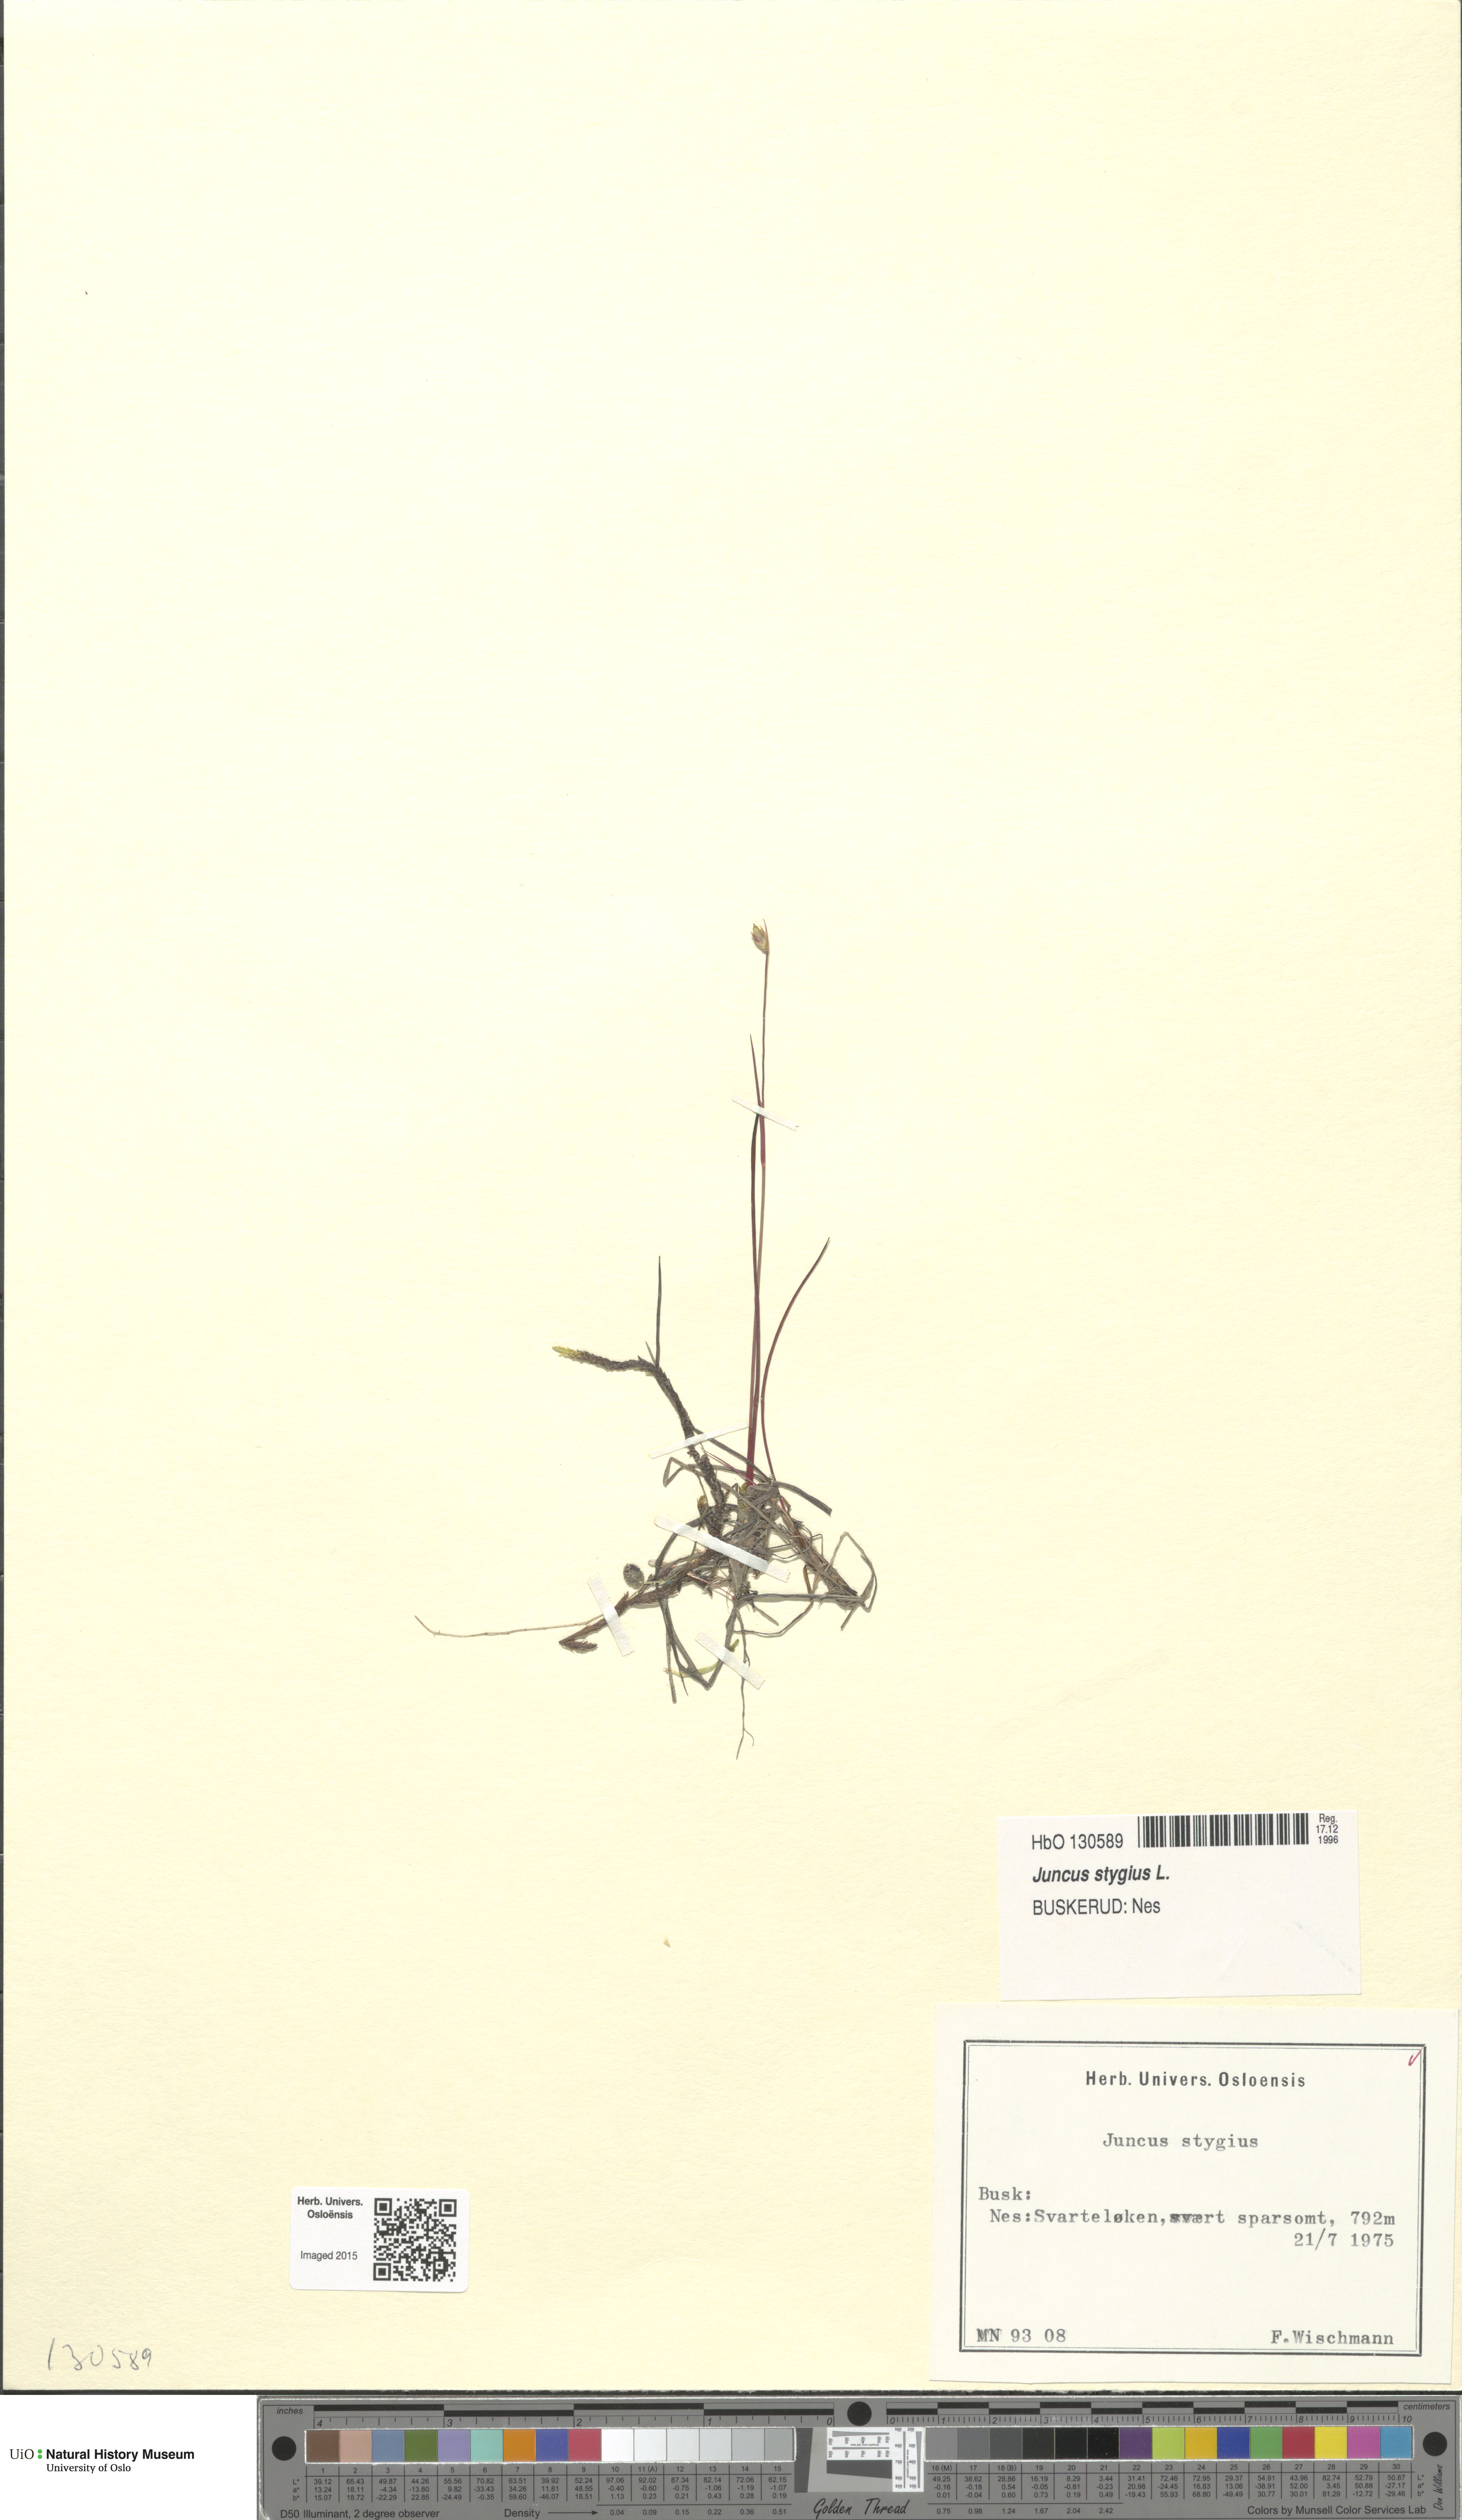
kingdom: Plantae
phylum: Tracheophyta
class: Liliopsida
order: Poales
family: Juncaceae
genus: Juncus
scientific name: Juncus stygius
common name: Bog rush
